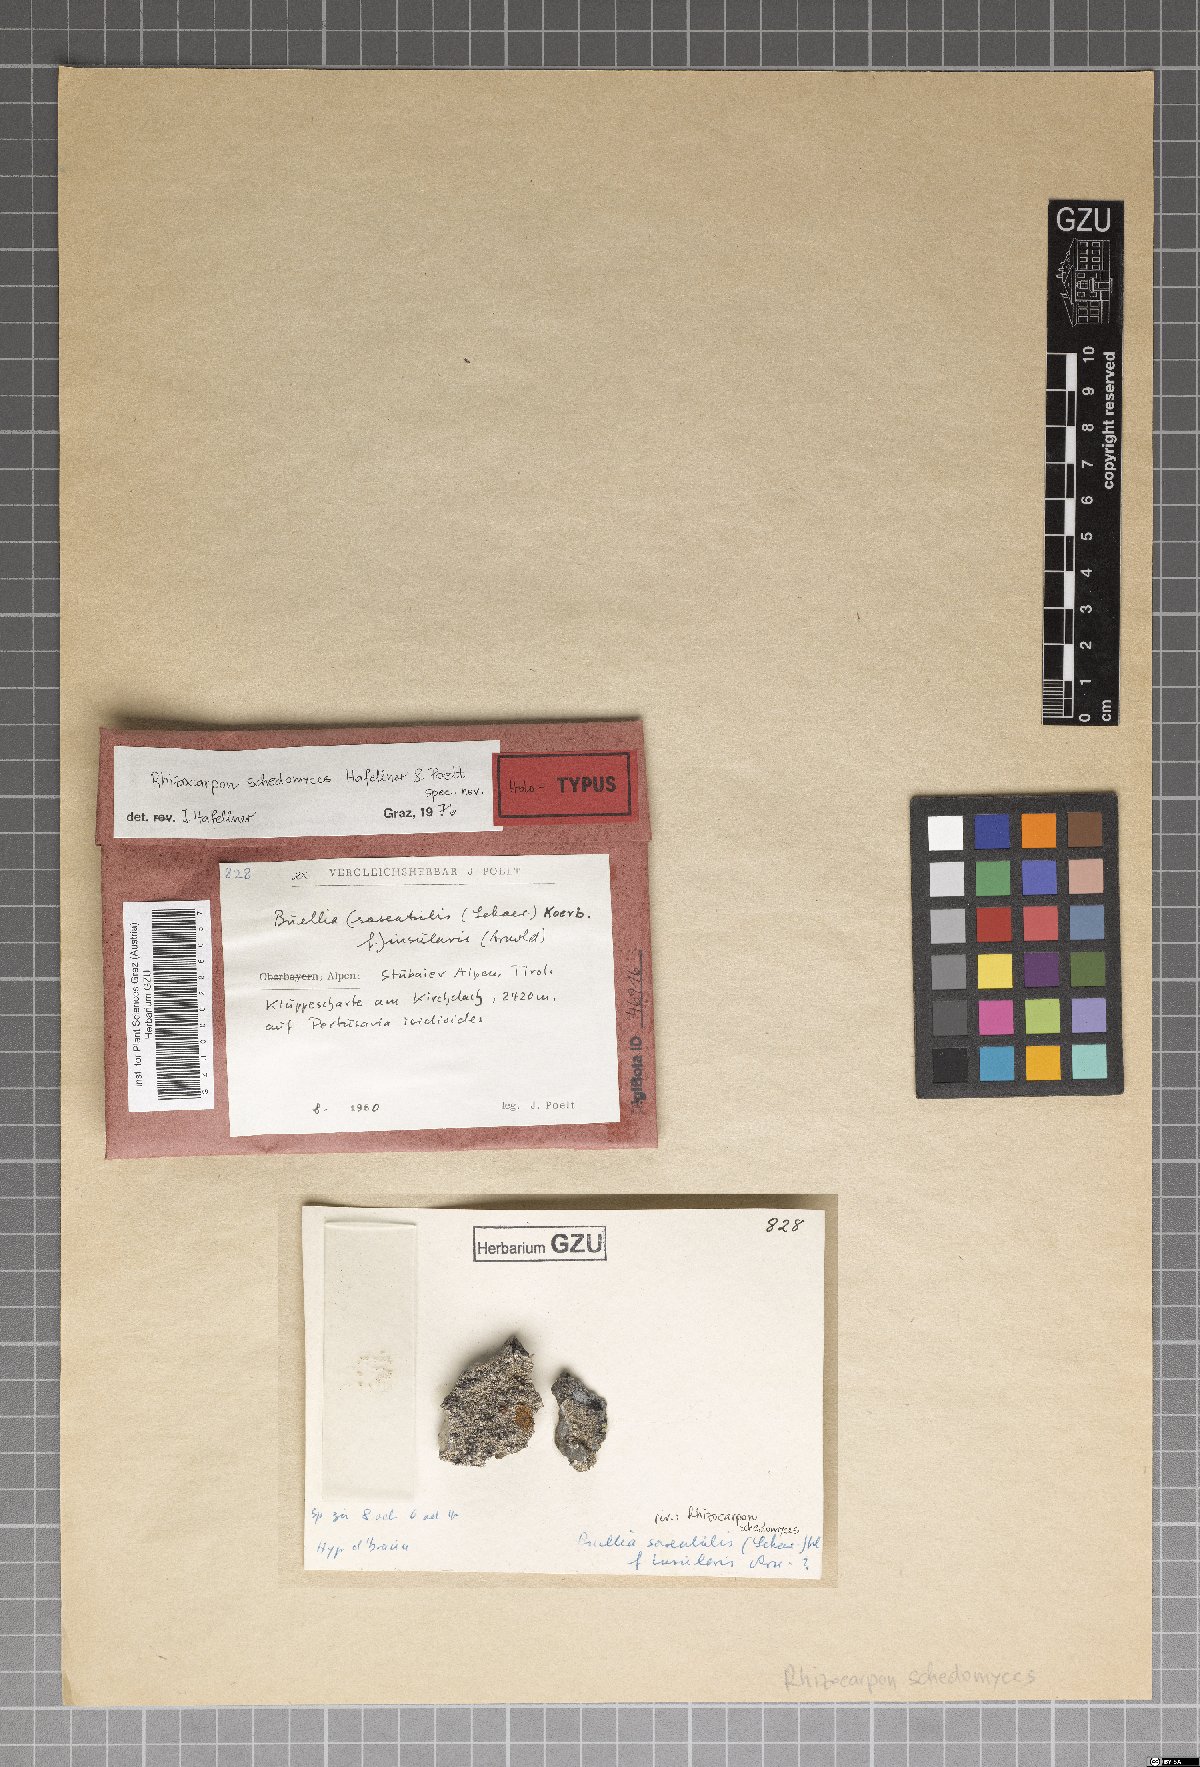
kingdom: Fungi
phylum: Ascomycota
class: Lecanoromycetes
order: Rhizocarpales
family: Rhizocarpaceae
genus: Rhizocarpon
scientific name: Rhizocarpon
